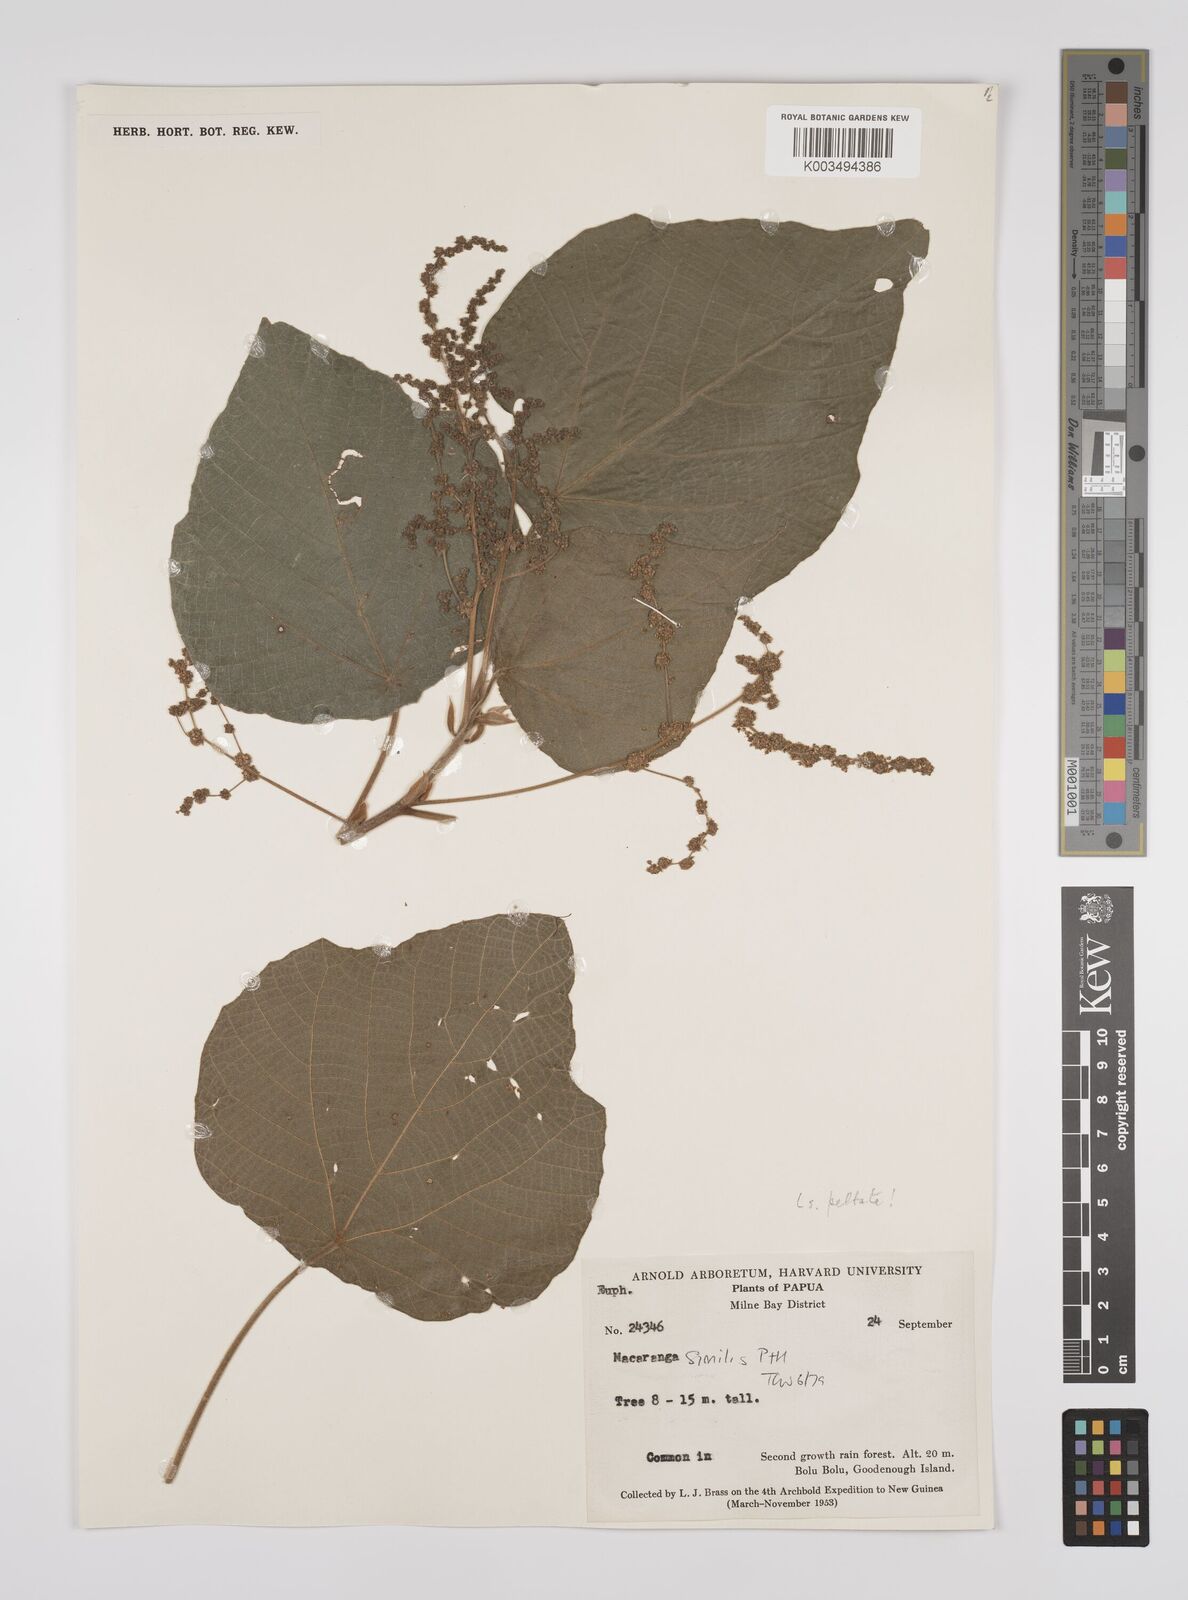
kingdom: Plantae
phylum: Tracheophyta
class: Magnoliopsida
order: Malpighiales
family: Euphorbiaceae
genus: Macaranga
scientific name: Macaranga similis
